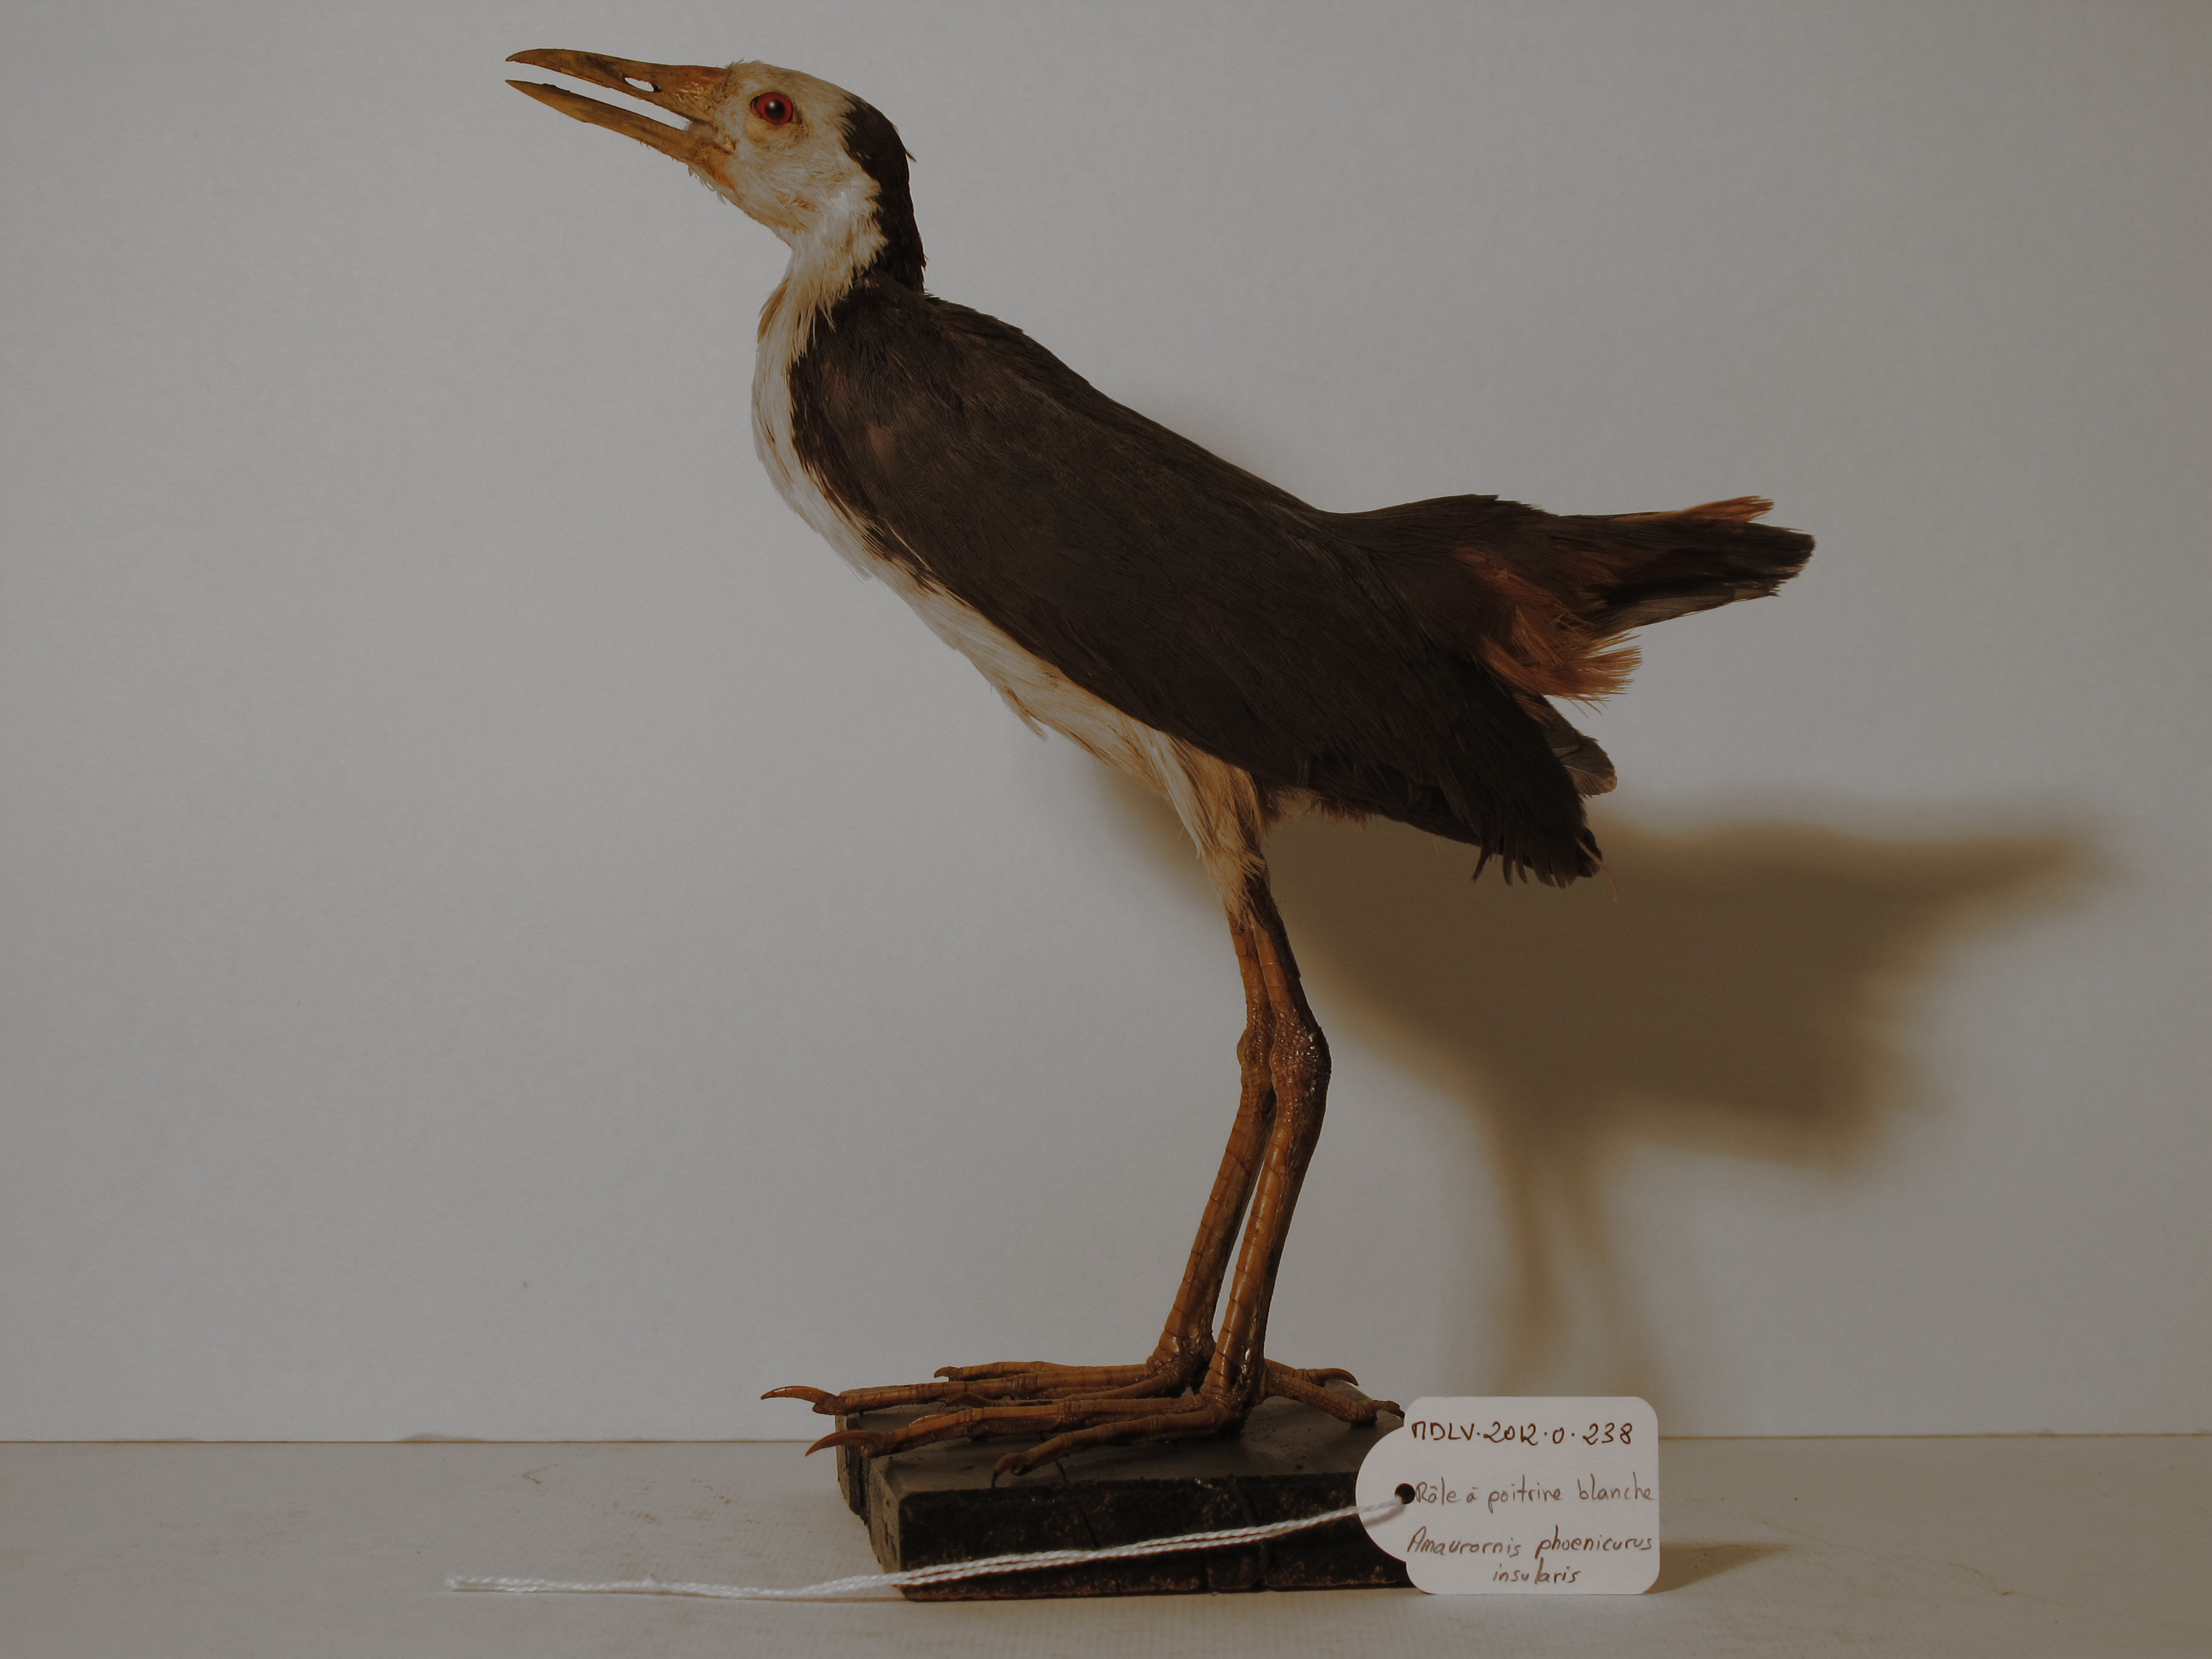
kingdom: Animalia
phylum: Chordata
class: Aves
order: Gruiformes
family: Rallidae
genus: Amaurornis
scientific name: Amaurornis phoenicurus
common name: White-breasted Waterhen
